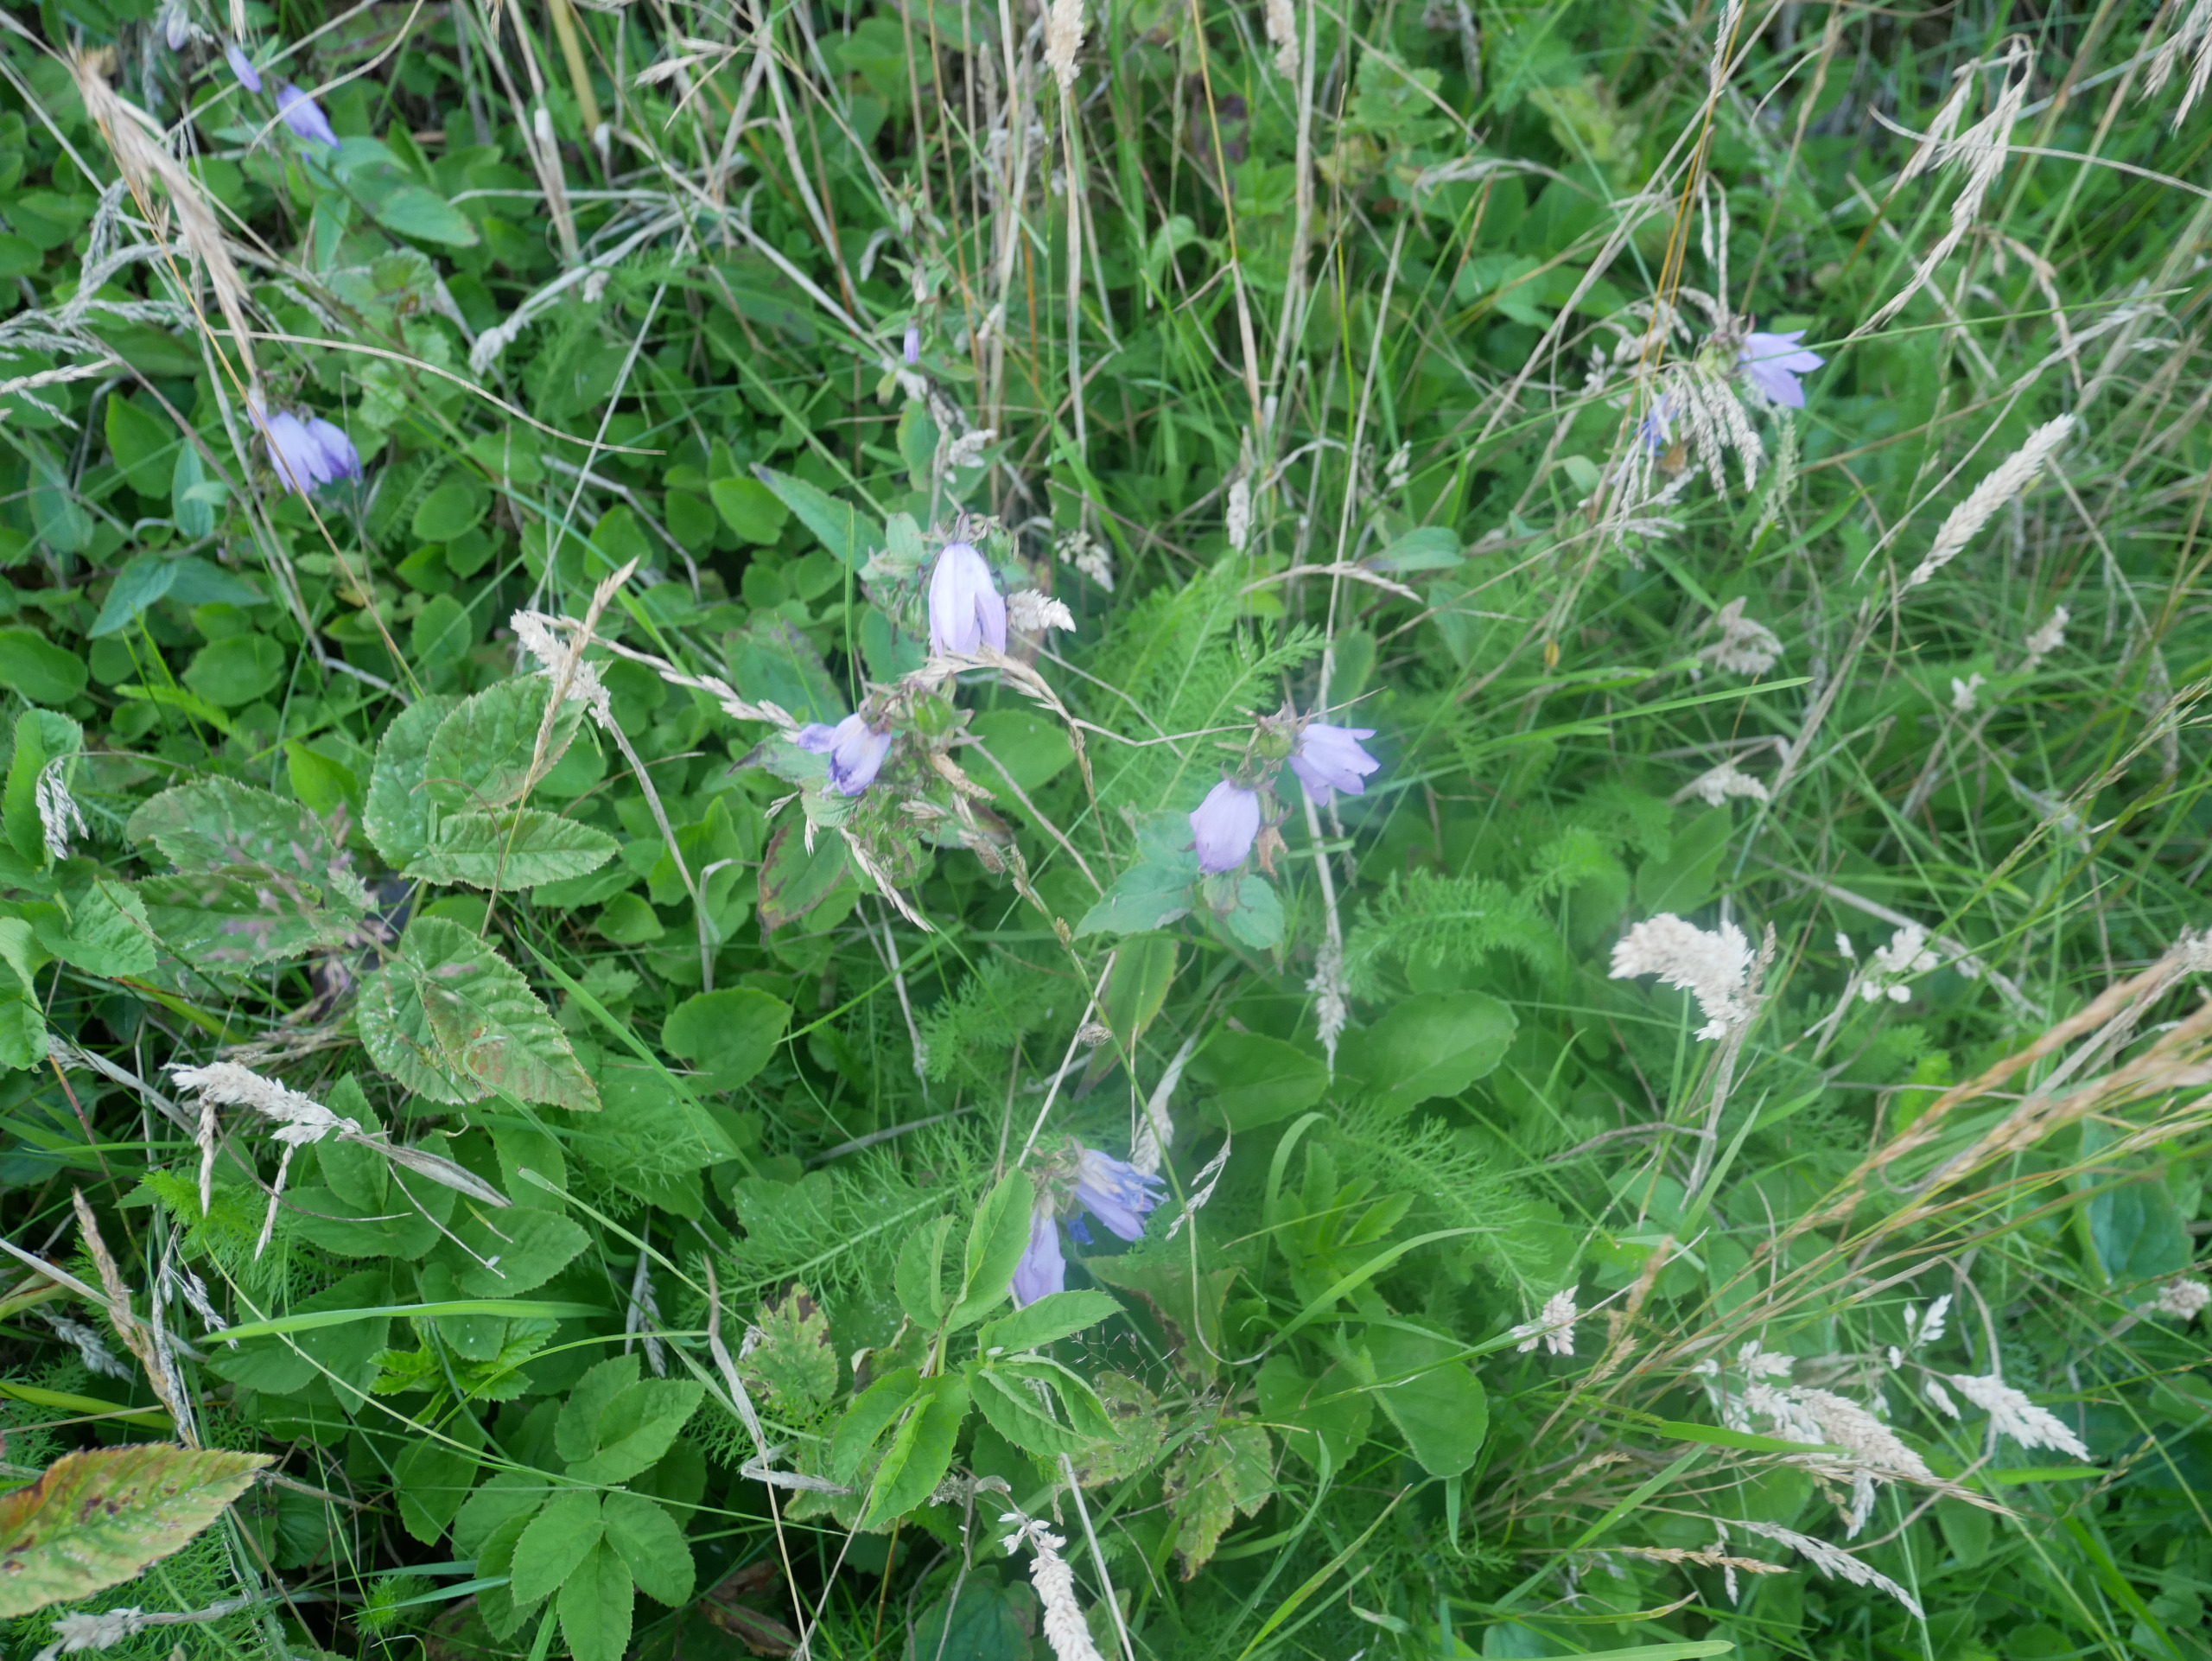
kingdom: Plantae
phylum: Tracheophyta
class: Magnoliopsida
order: Asterales
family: Campanulaceae
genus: Campanula
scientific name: Campanula rapunculoides
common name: Ensidig klokke
